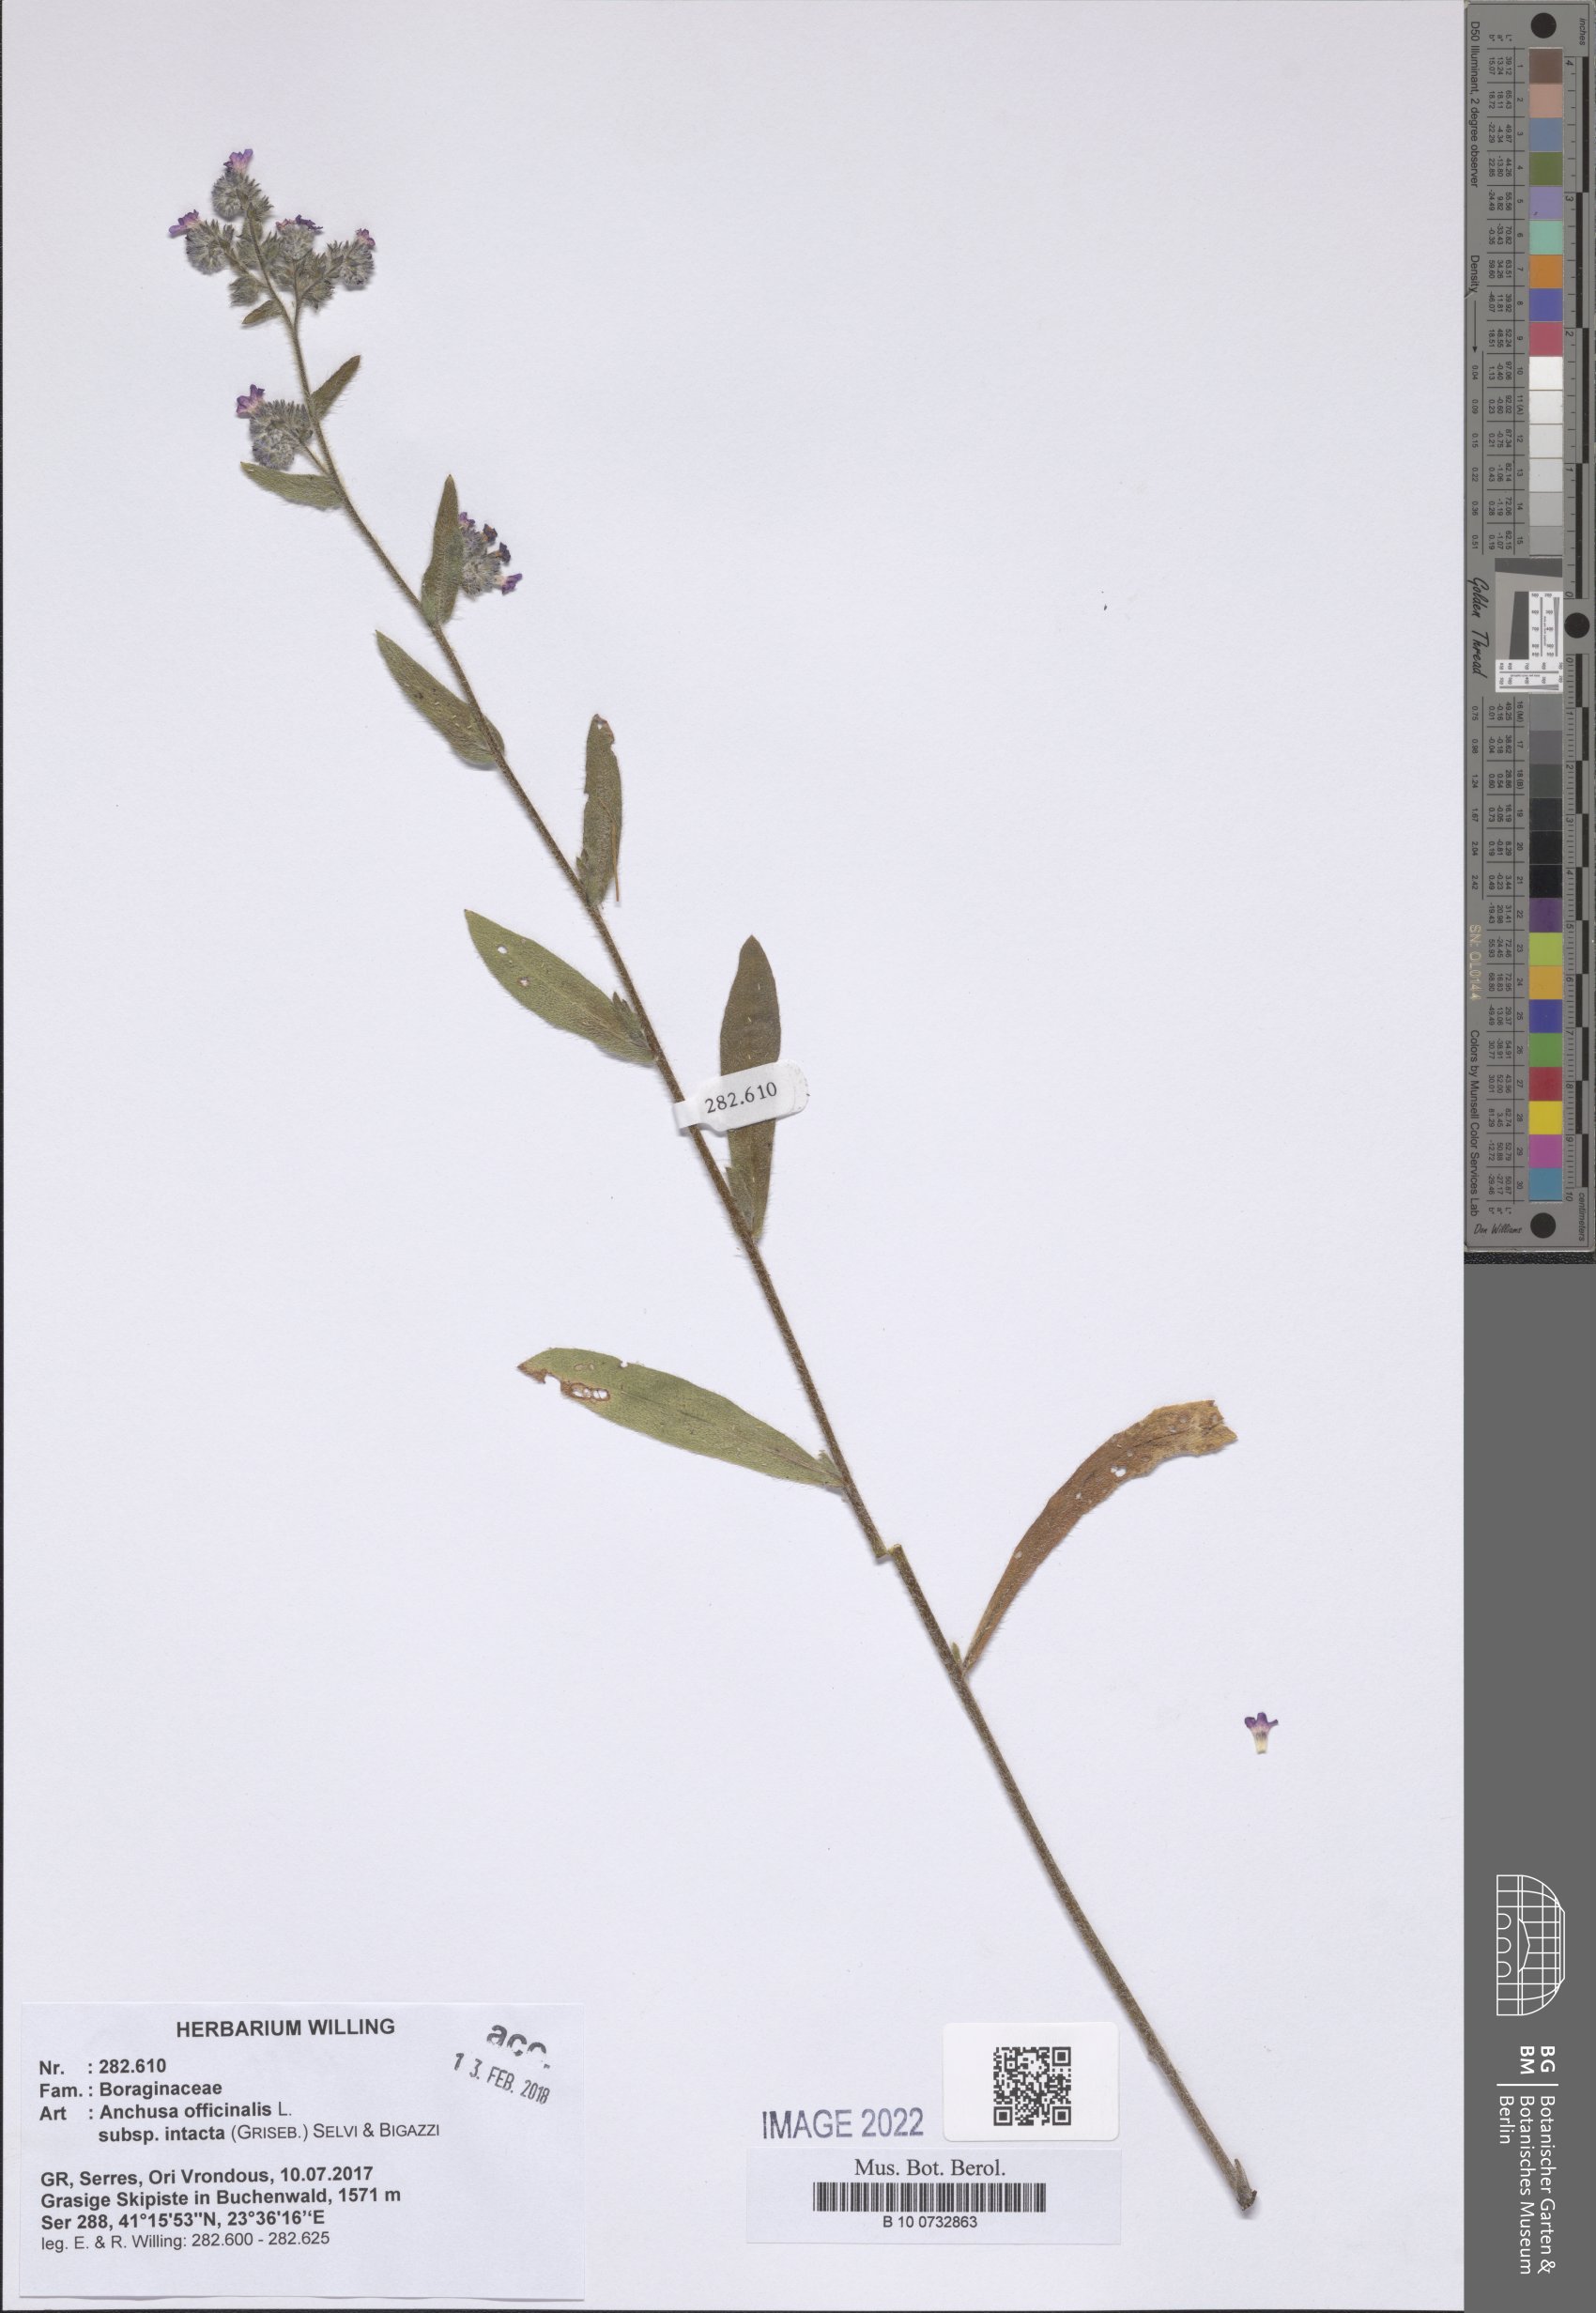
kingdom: Plantae
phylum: Tracheophyta
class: Magnoliopsida
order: Boraginales
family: Boraginaceae
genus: Anchusa
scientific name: Anchusa officinalis
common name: Alkanet
